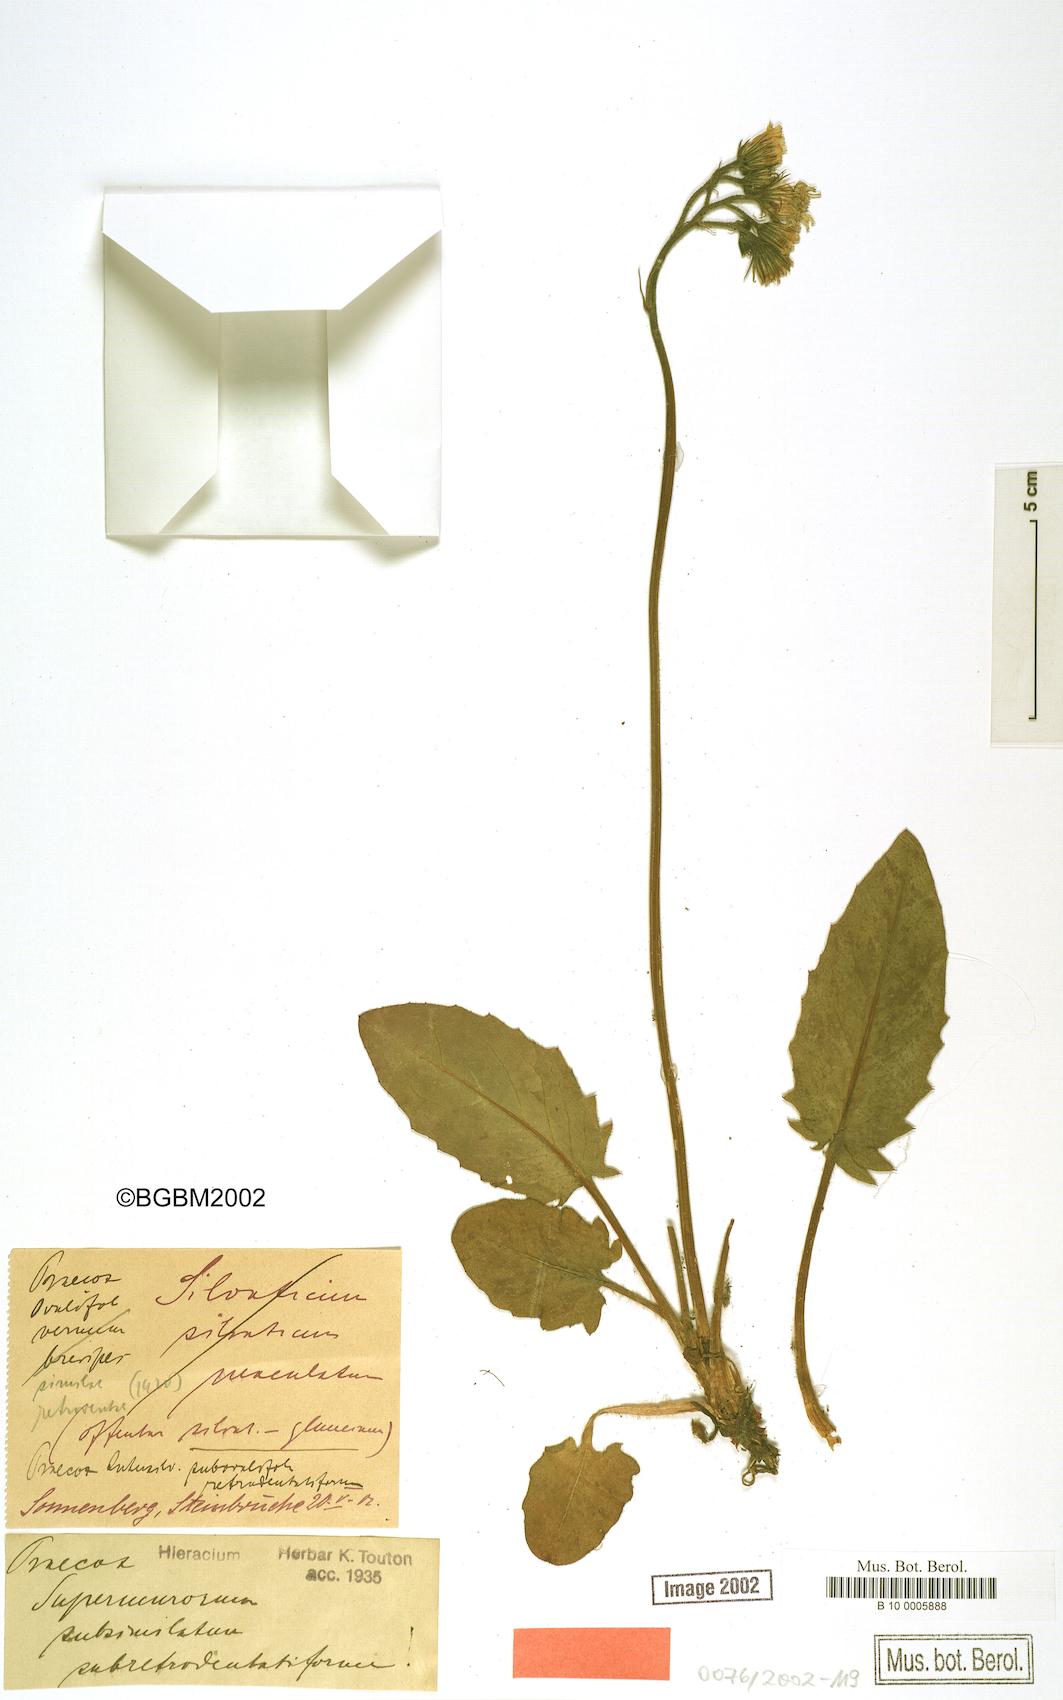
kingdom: Plantae
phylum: Tracheophyta
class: Magnoliopsida
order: Asterales
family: Asteraceae
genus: Hieracium
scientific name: Hieracium praecox
